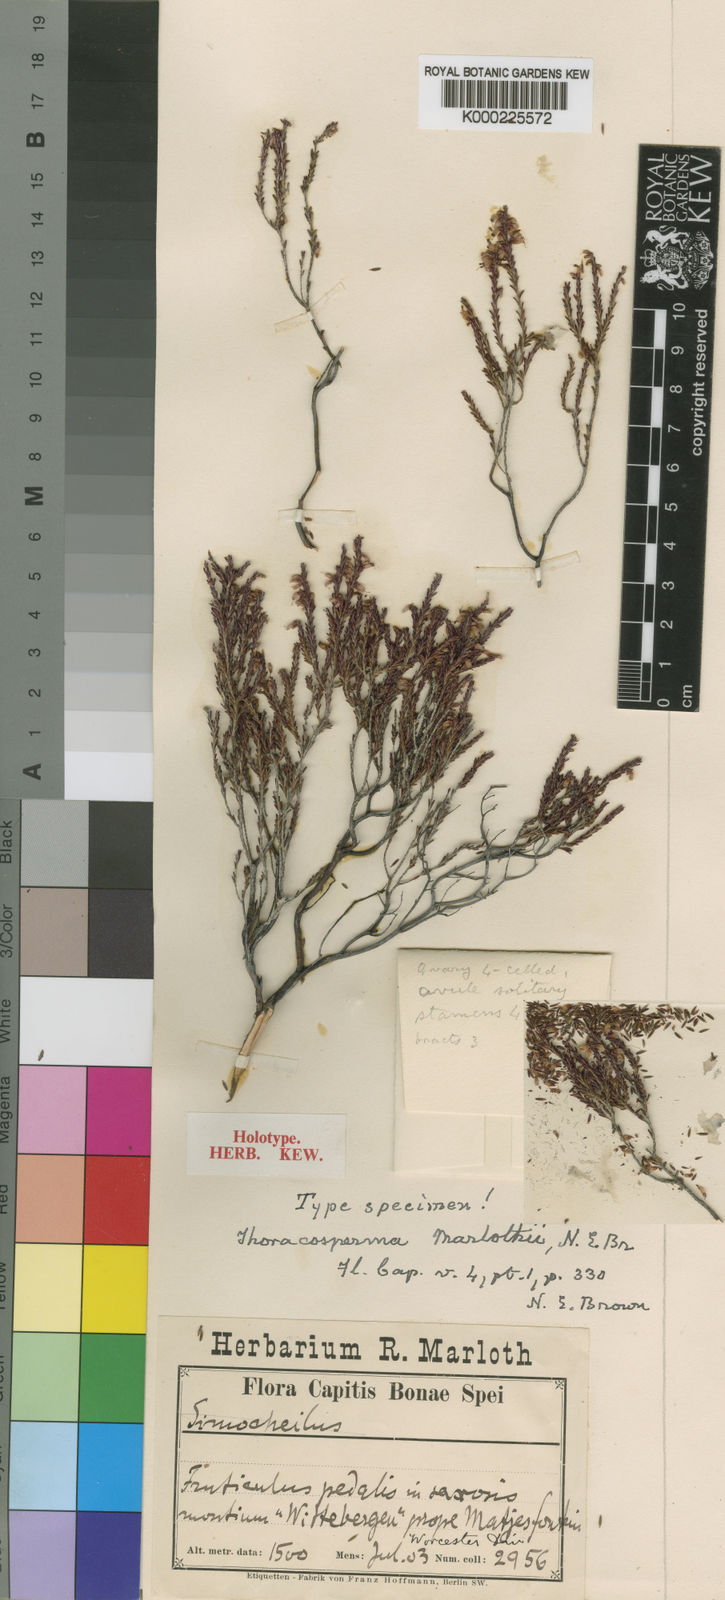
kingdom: Plantae
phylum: Tracheophyta
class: Magnoliopsida
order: Ericales
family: Ericaceae
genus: Erica
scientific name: Erica rosacea
